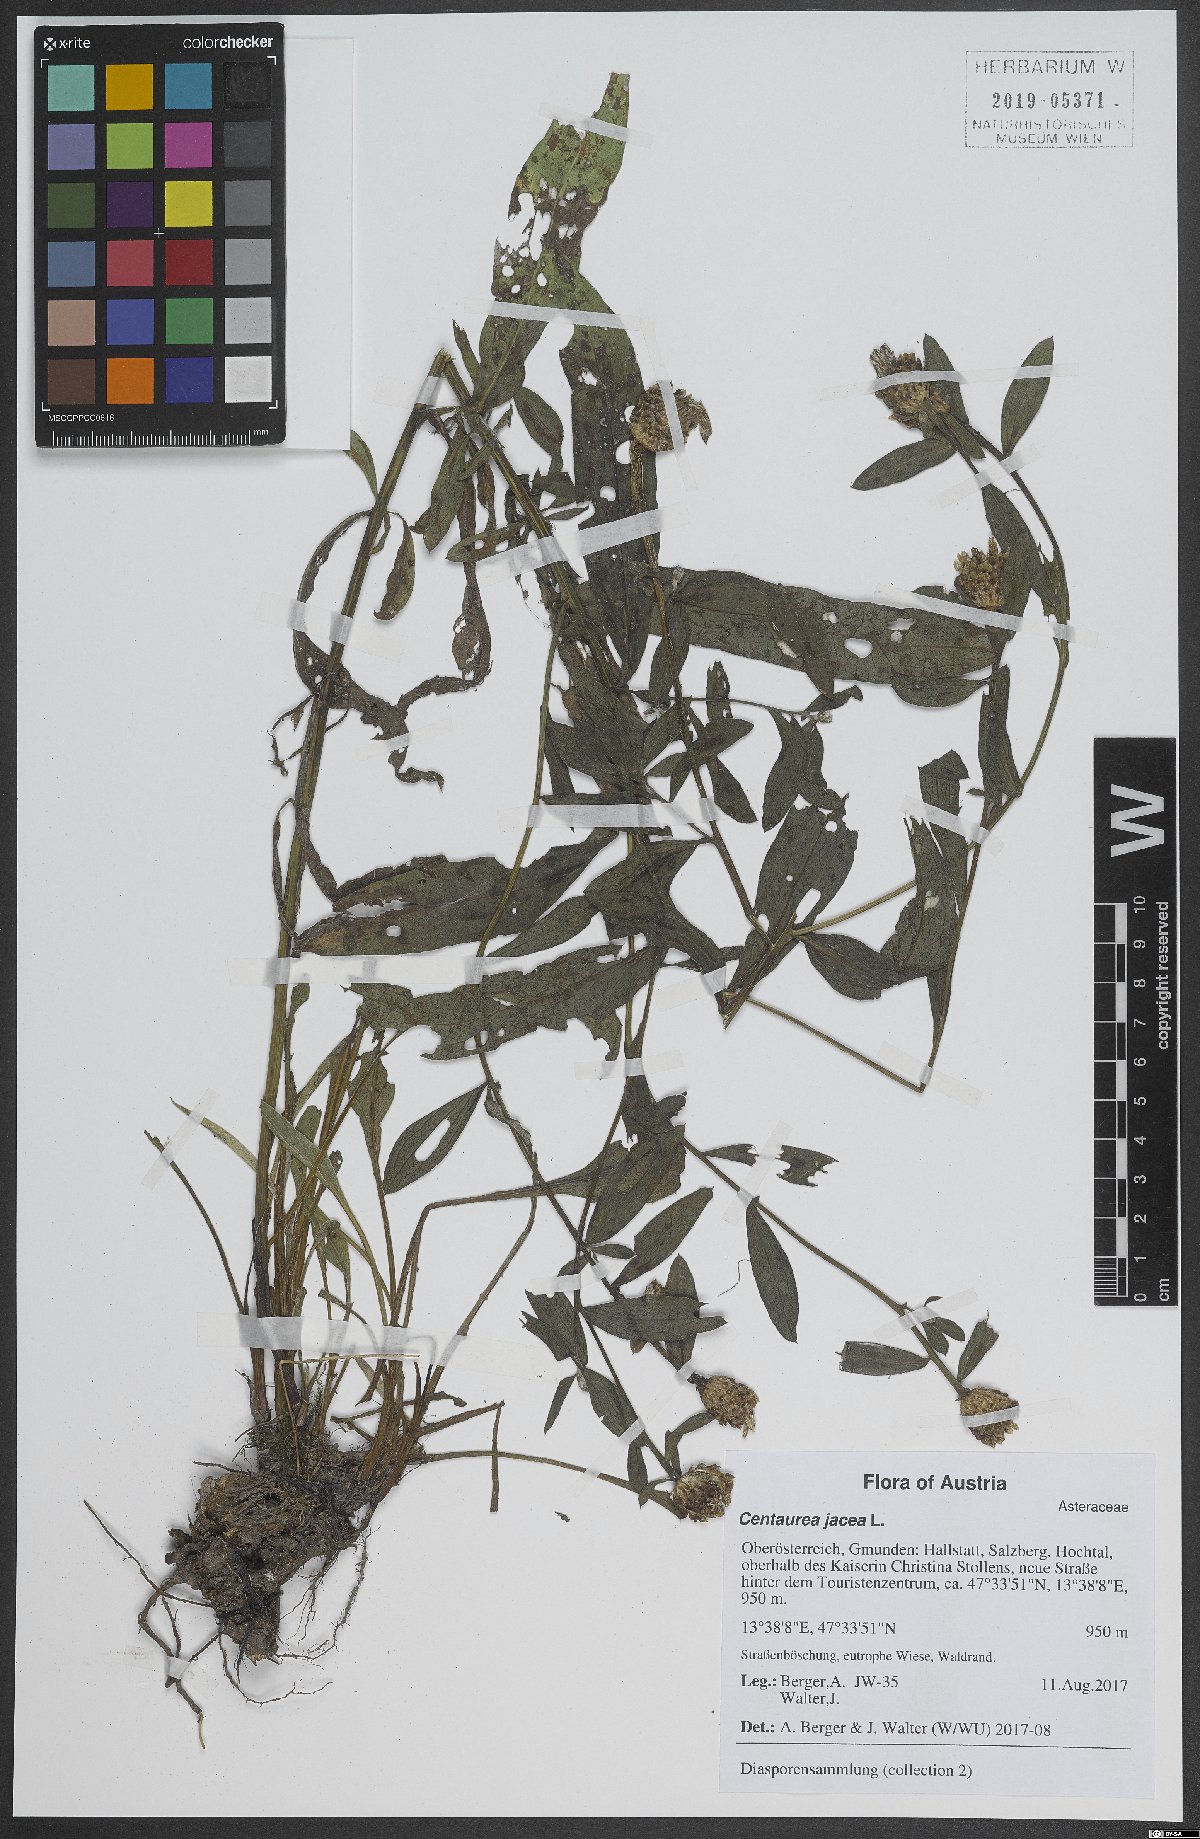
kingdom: Plantae
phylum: Tracheophyta
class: Magnoliopsida
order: Asterales
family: Asteraceae
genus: Centaurea
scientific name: Centaurea jacea
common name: Brown knapweed
